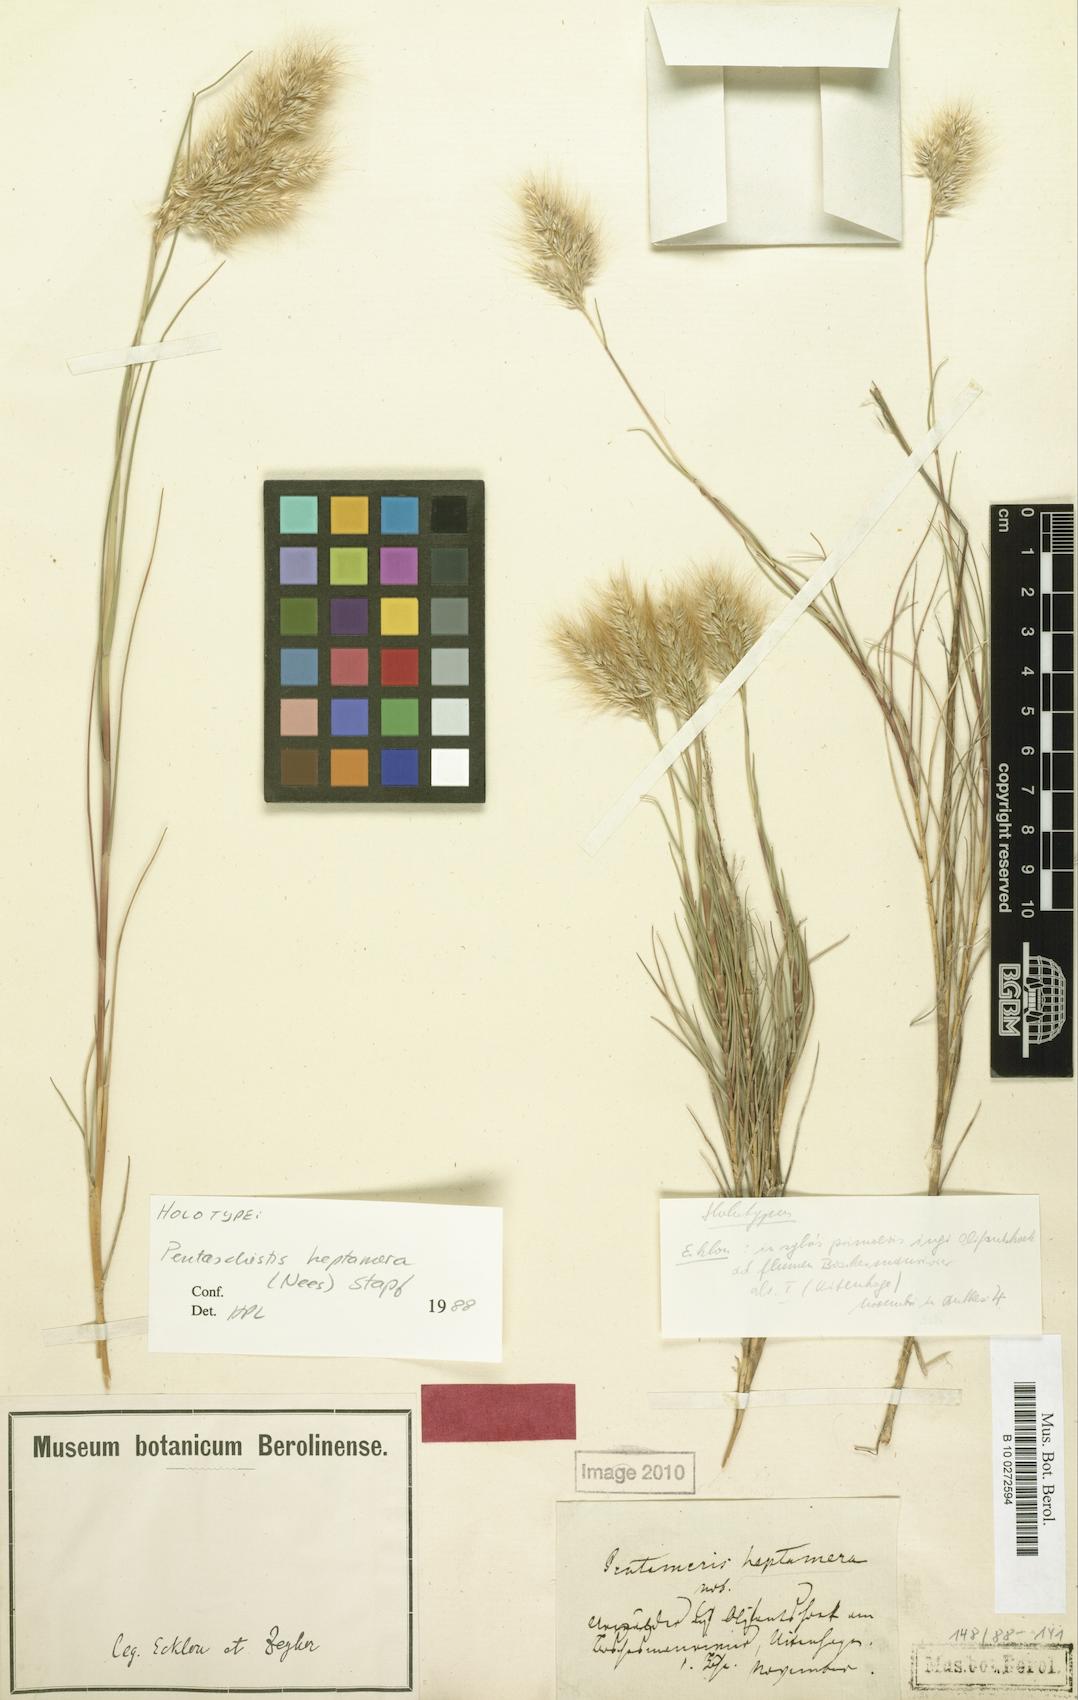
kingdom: Plantae
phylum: Tracheophyta
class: Liliopsida
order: Poales
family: Poaceae
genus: Pentameris
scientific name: Pentameris heptamera
